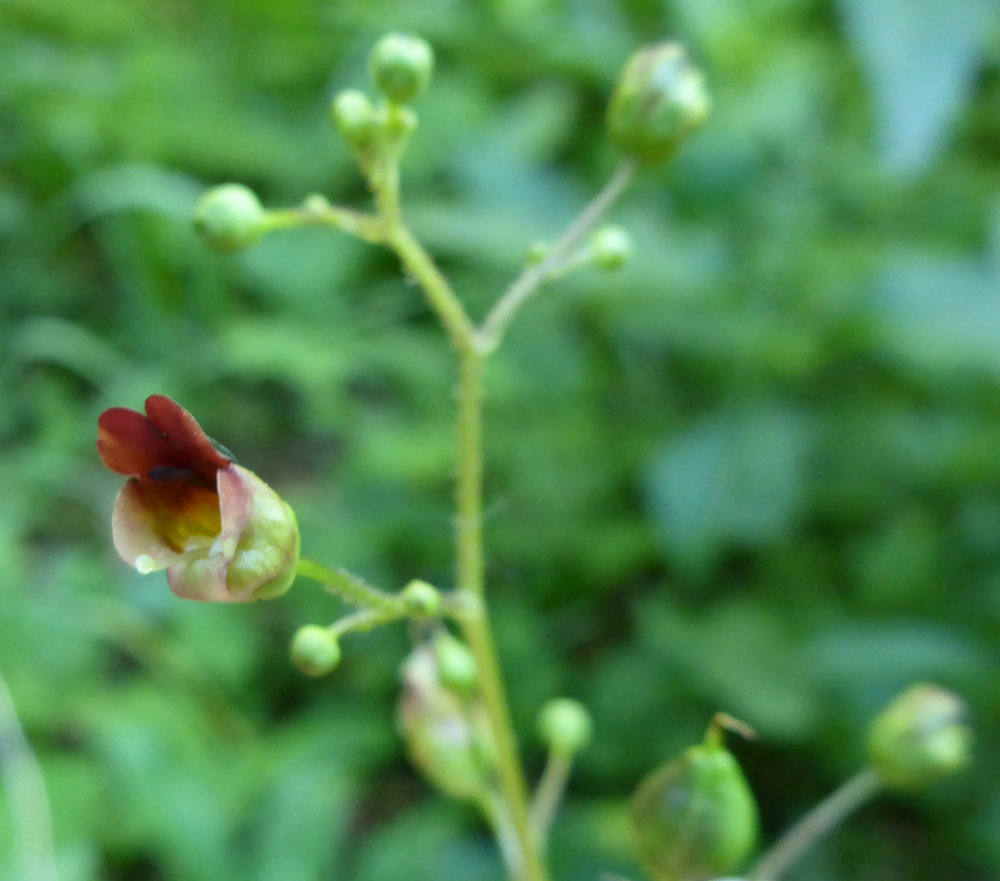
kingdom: Plantae
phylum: Tracheophyta
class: Magnoliopsida
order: Lamiales
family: Scrophulariaceae
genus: Scrophularia
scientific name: Scrophularia nodosa
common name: Common figwort
